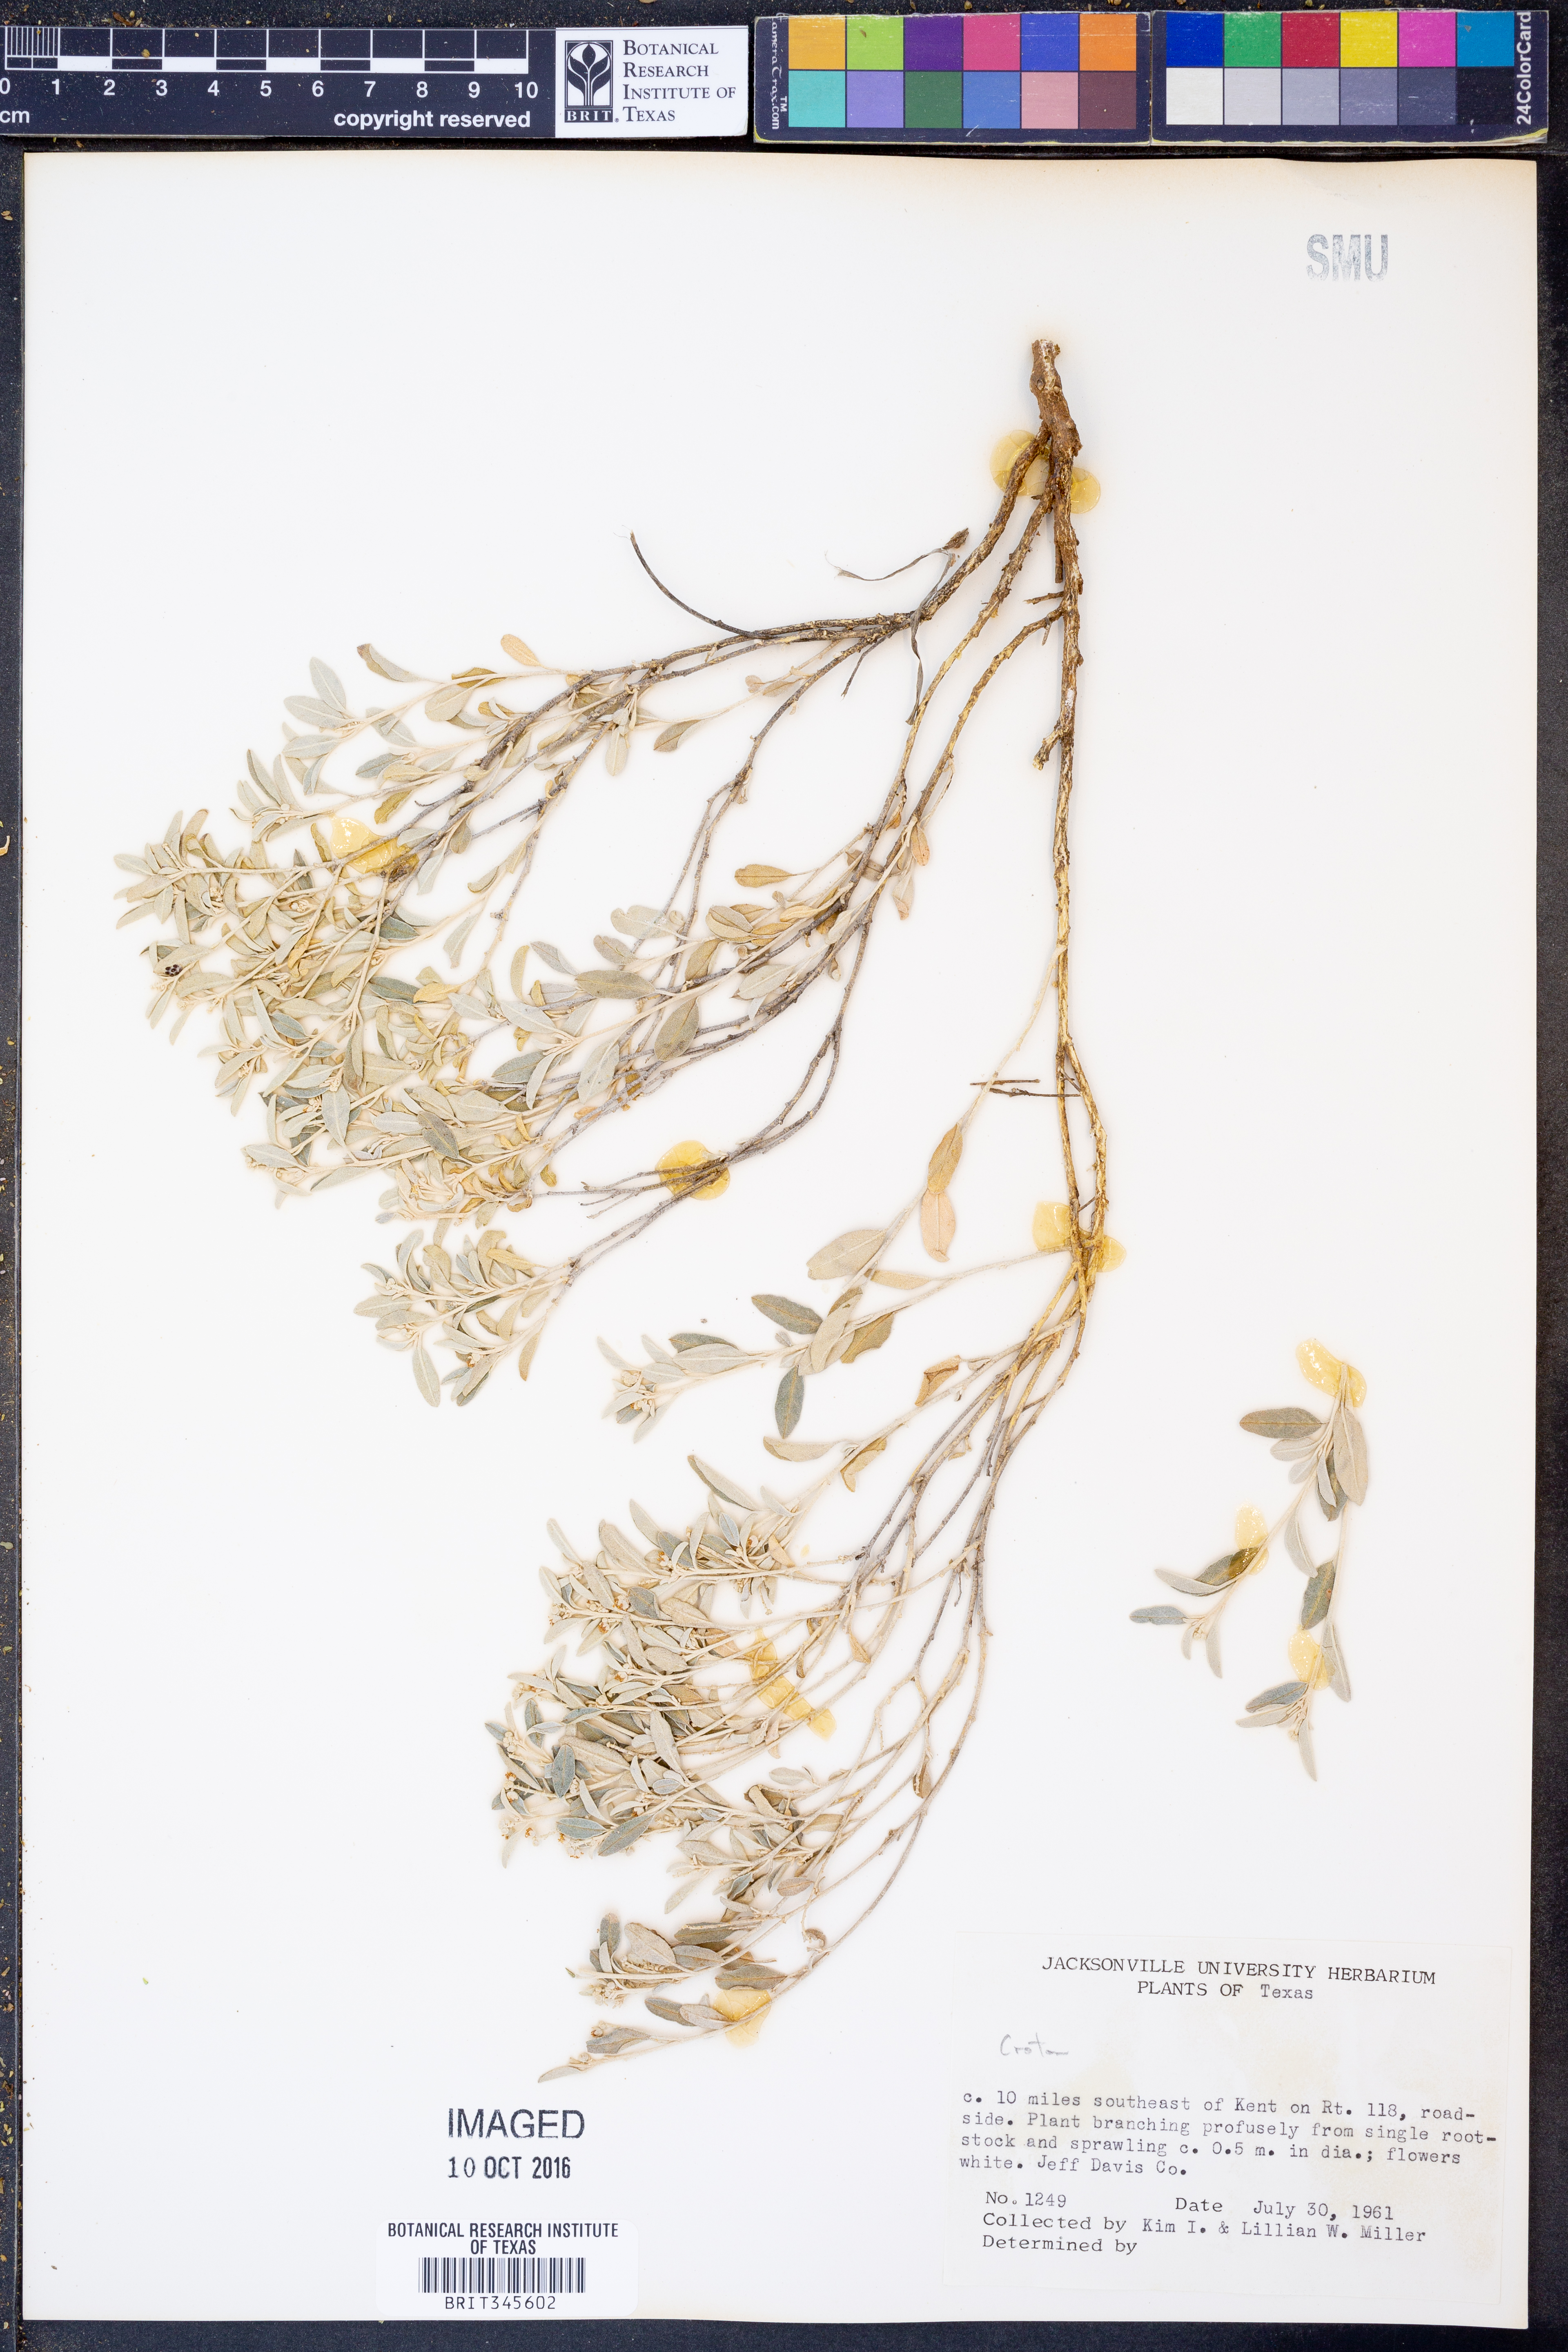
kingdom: Plantae
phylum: Tracheophyta
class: Magnoliopsida
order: Malpighiales
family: Euphorbiaceae
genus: Croton
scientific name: Croton
